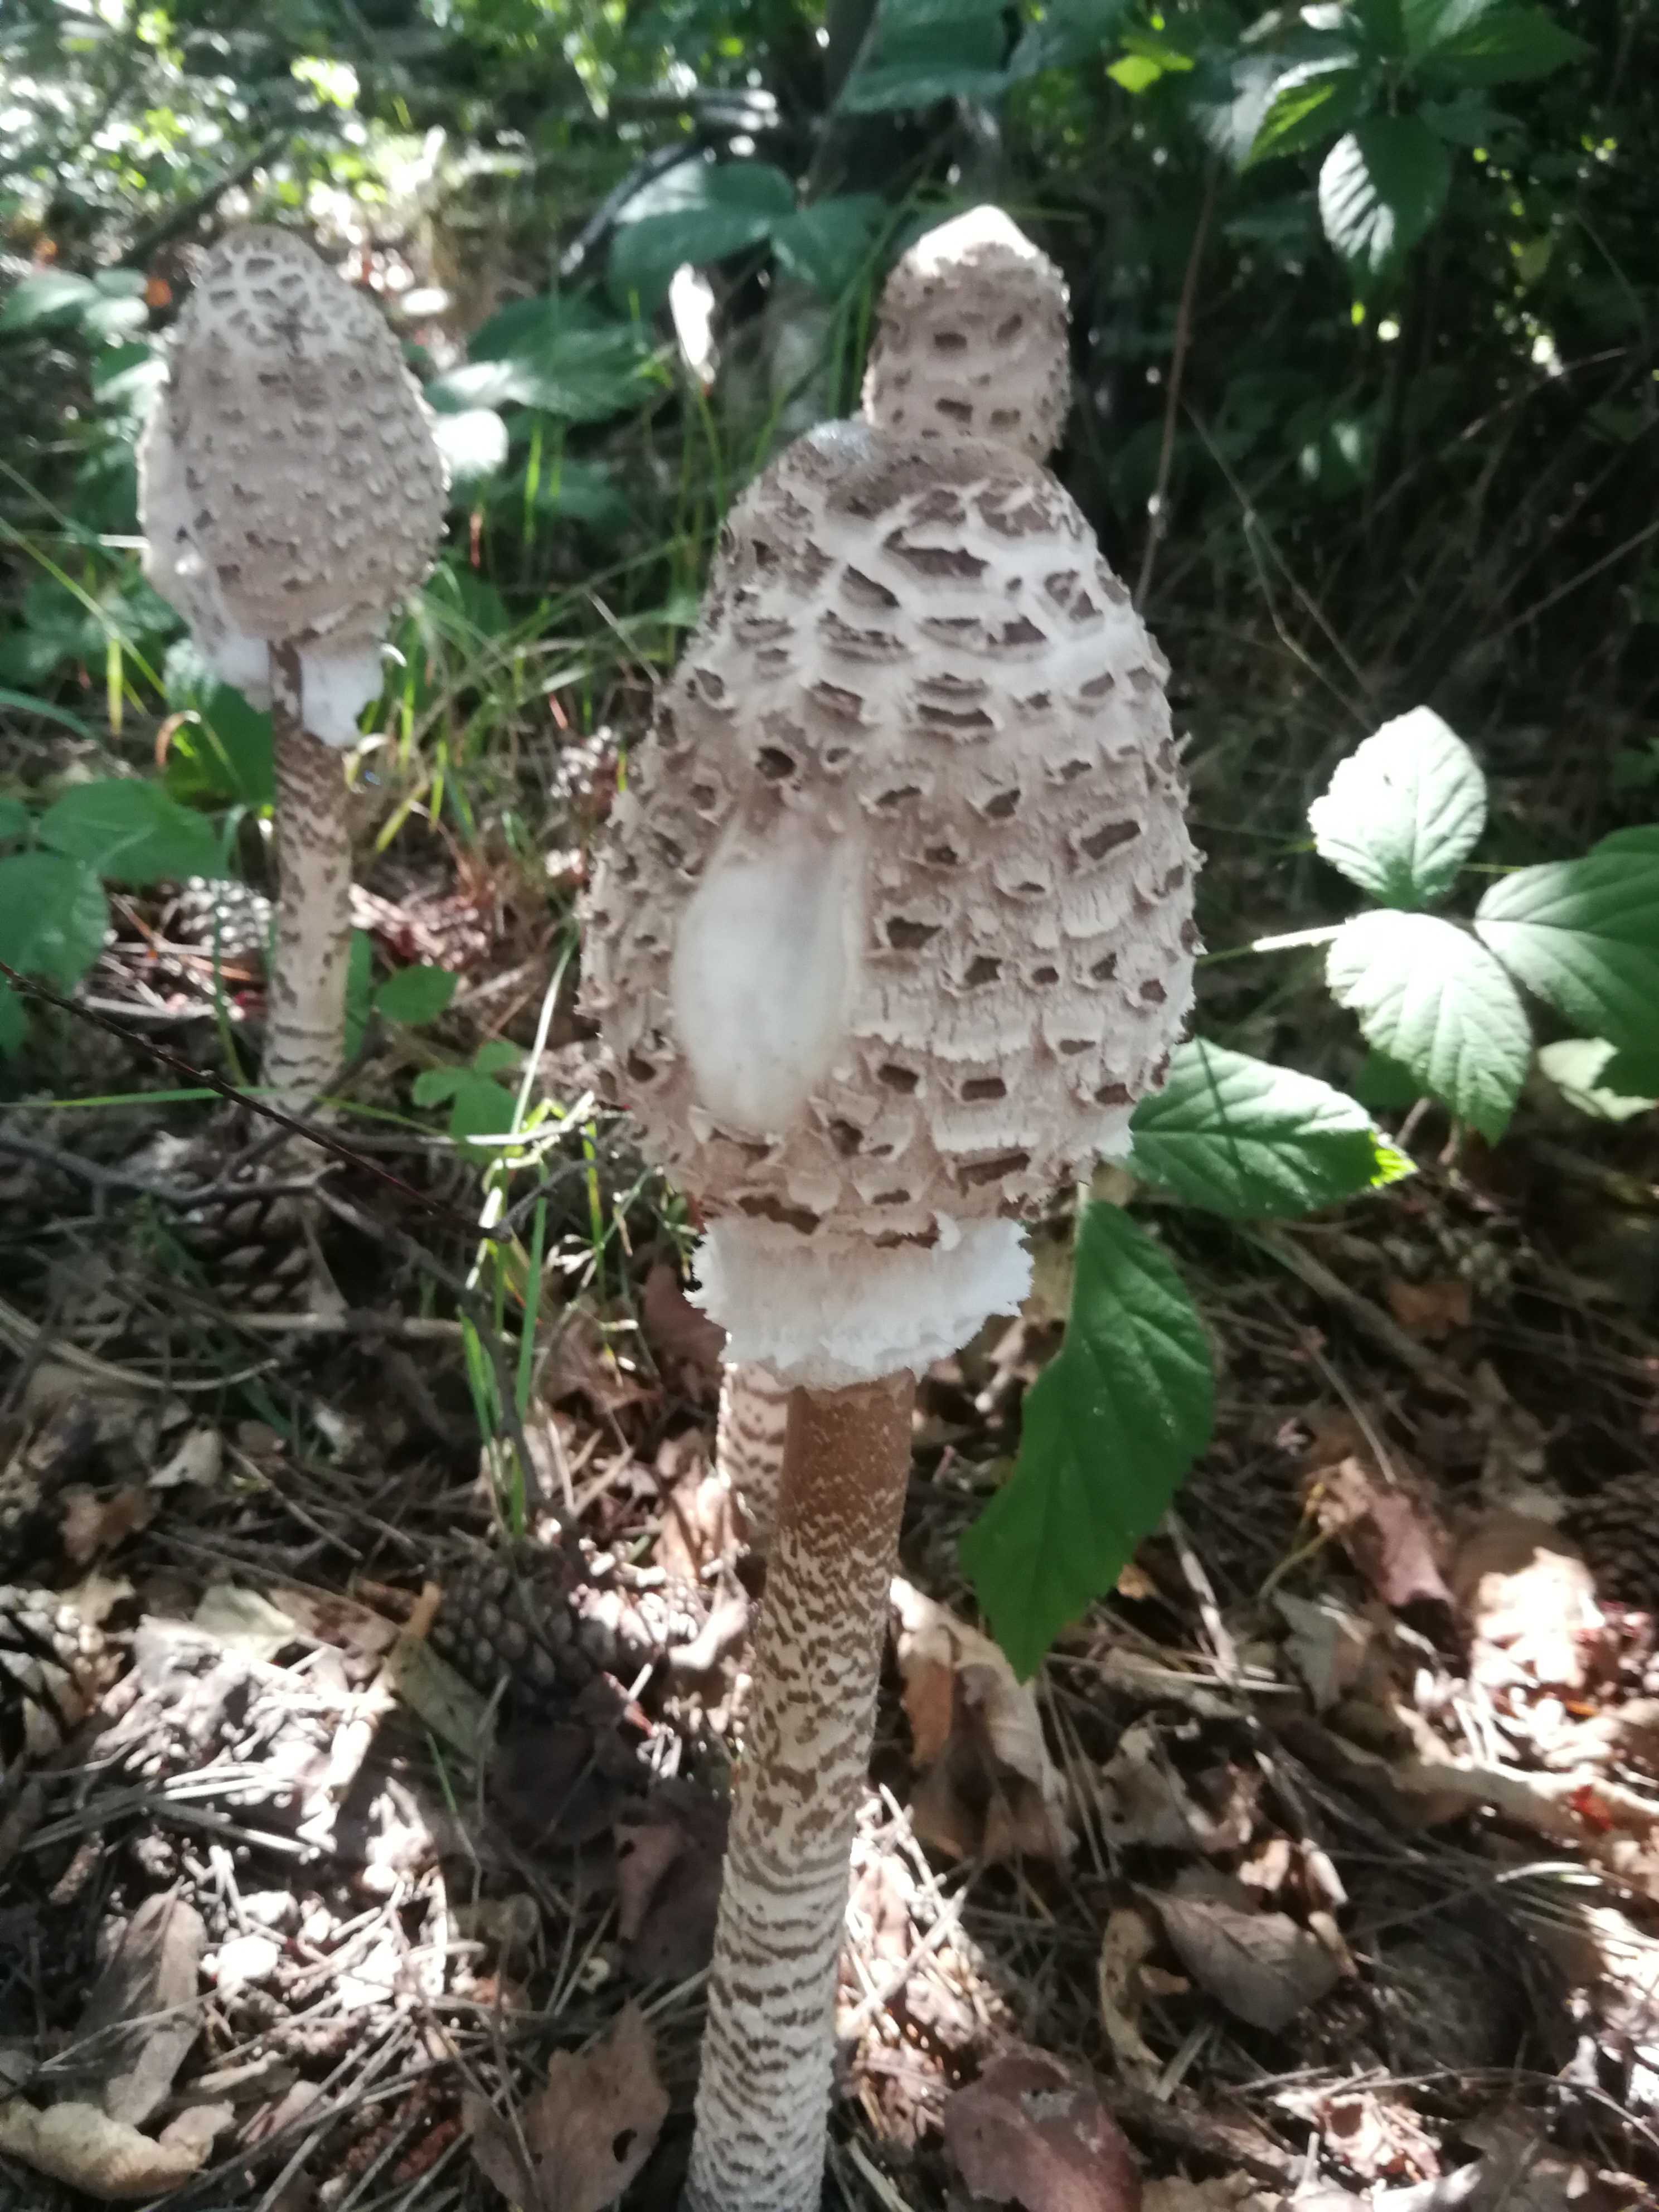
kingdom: Fungi
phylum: Basidiomycota
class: Agaricomycetes
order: Agaricales
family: Agaricaceae
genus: Macrolepiota
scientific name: Macrolepiota procera
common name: stor kæmpeparasolhat
